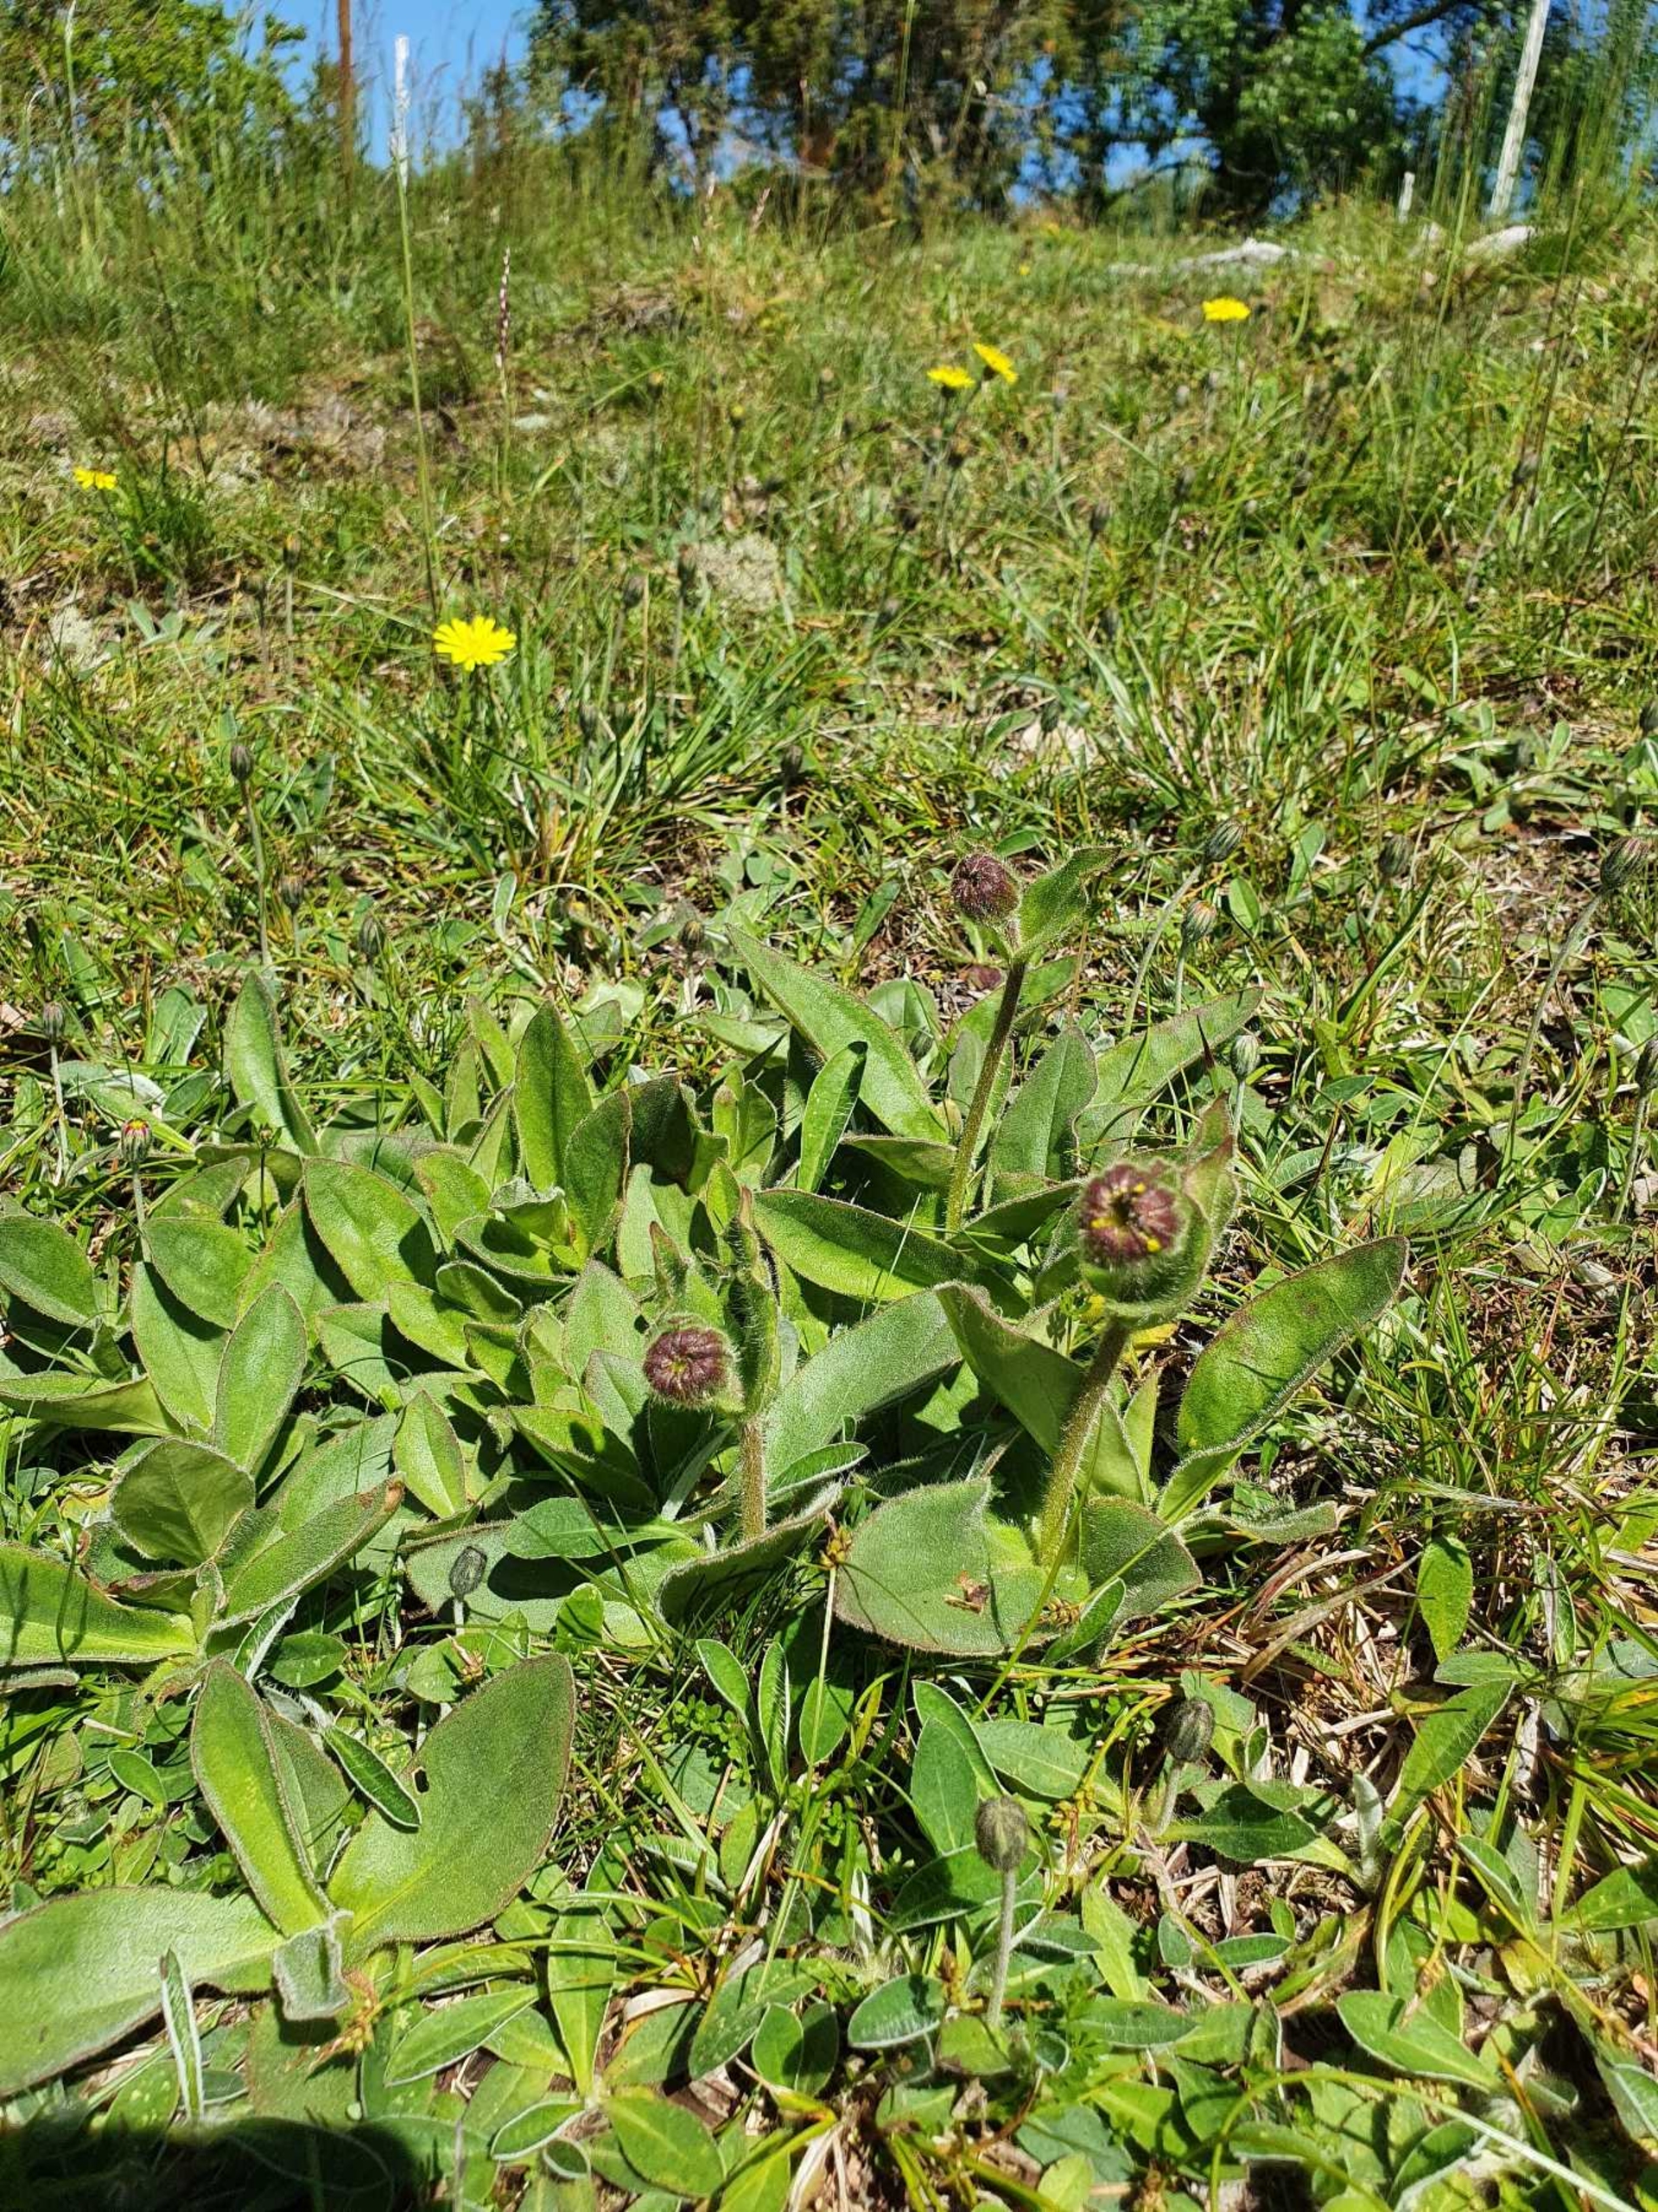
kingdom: Plantae
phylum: Tracheophyta
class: Magnoliopsida
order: Asterales
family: Asteraceae
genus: Arnica
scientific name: Arnica montana
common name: Guldblomme
